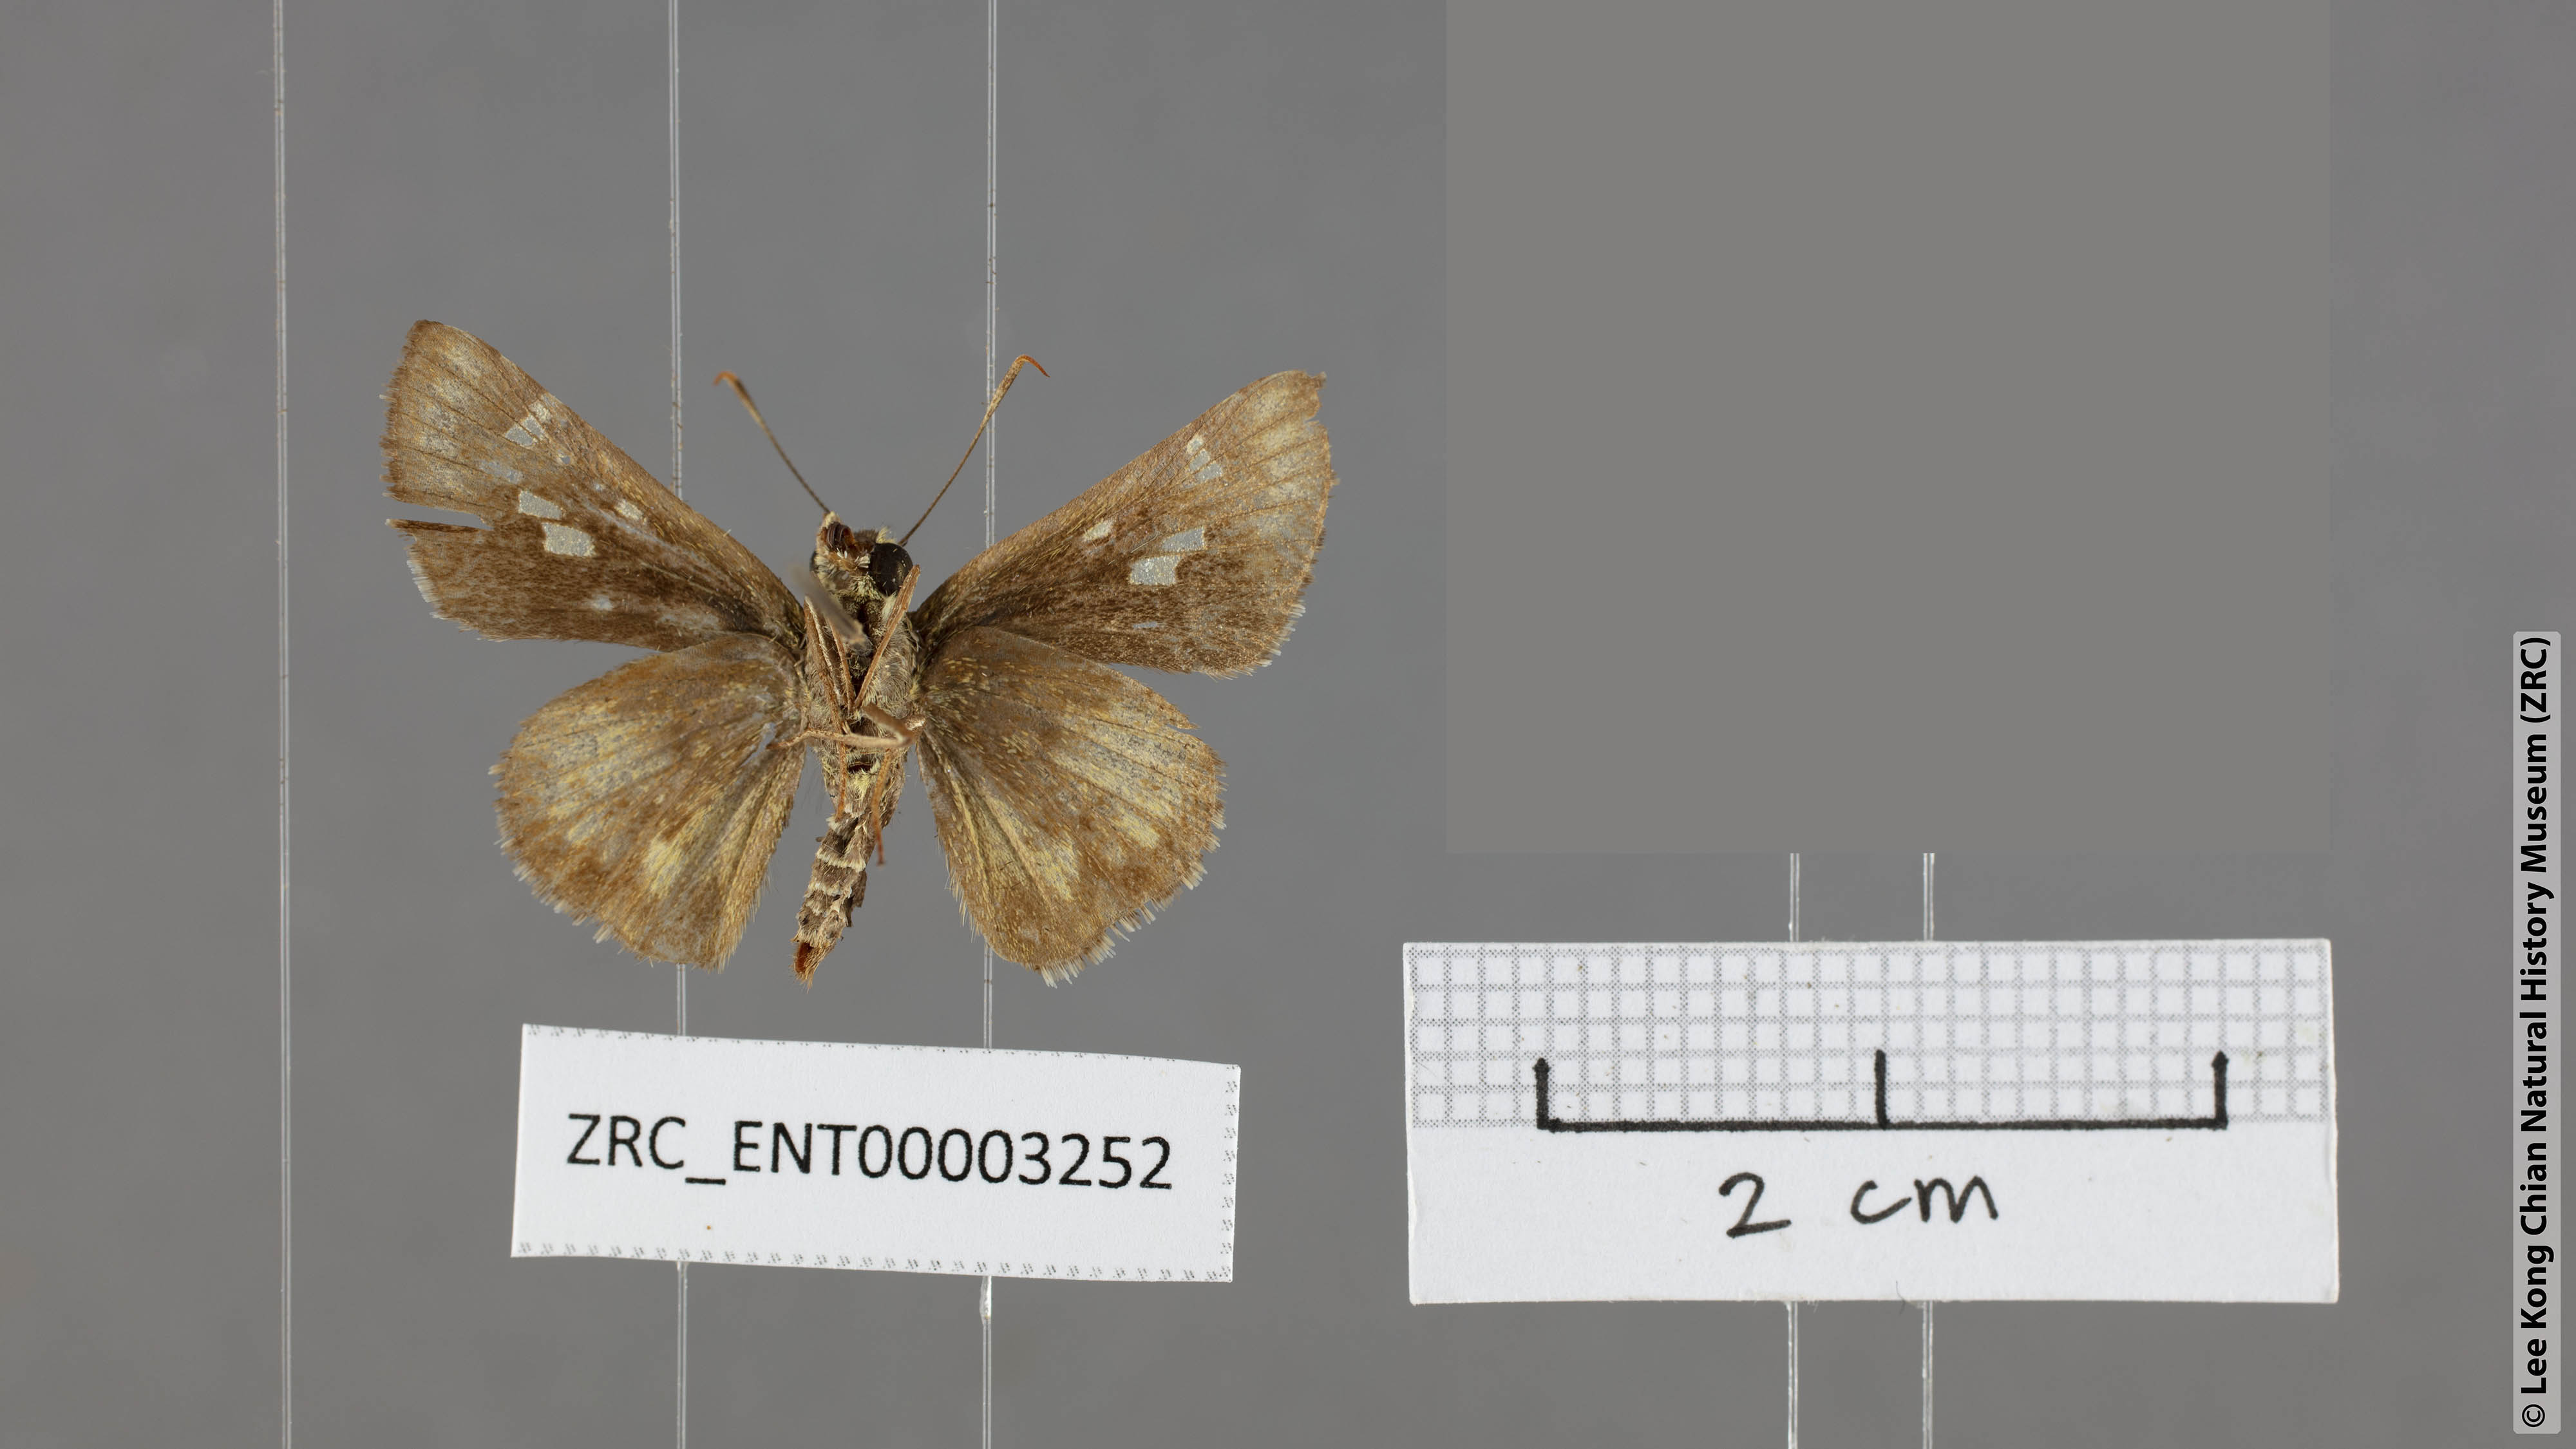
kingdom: Animalia
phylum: Arthropoda
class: Insecta
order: Lepidoptera
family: Hesperiidae
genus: Halpe
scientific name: Halpe veluvana
